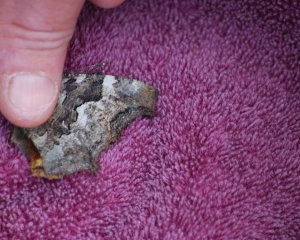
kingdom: Animalia
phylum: Arthropoda
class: Insecta
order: Lepidoptera
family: Nymphalidae
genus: Polygonia
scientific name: Polygonia vaualbum
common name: Compton Tortoiseshell
